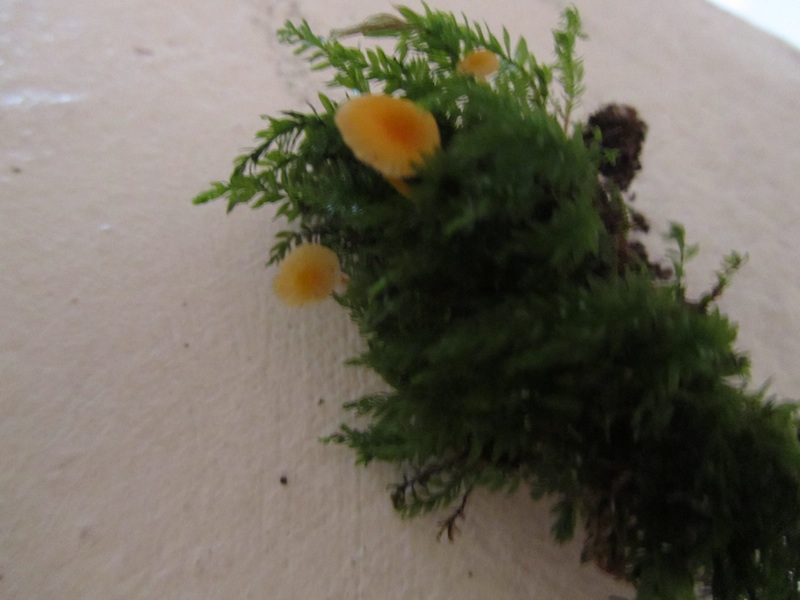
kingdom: Fungi
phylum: Basidiomycota
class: Agaricomycetes
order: Hymenochaetales
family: Rickenellaceae
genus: Rickenella
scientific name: Rickenella fibula
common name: orange mosnavlehat
